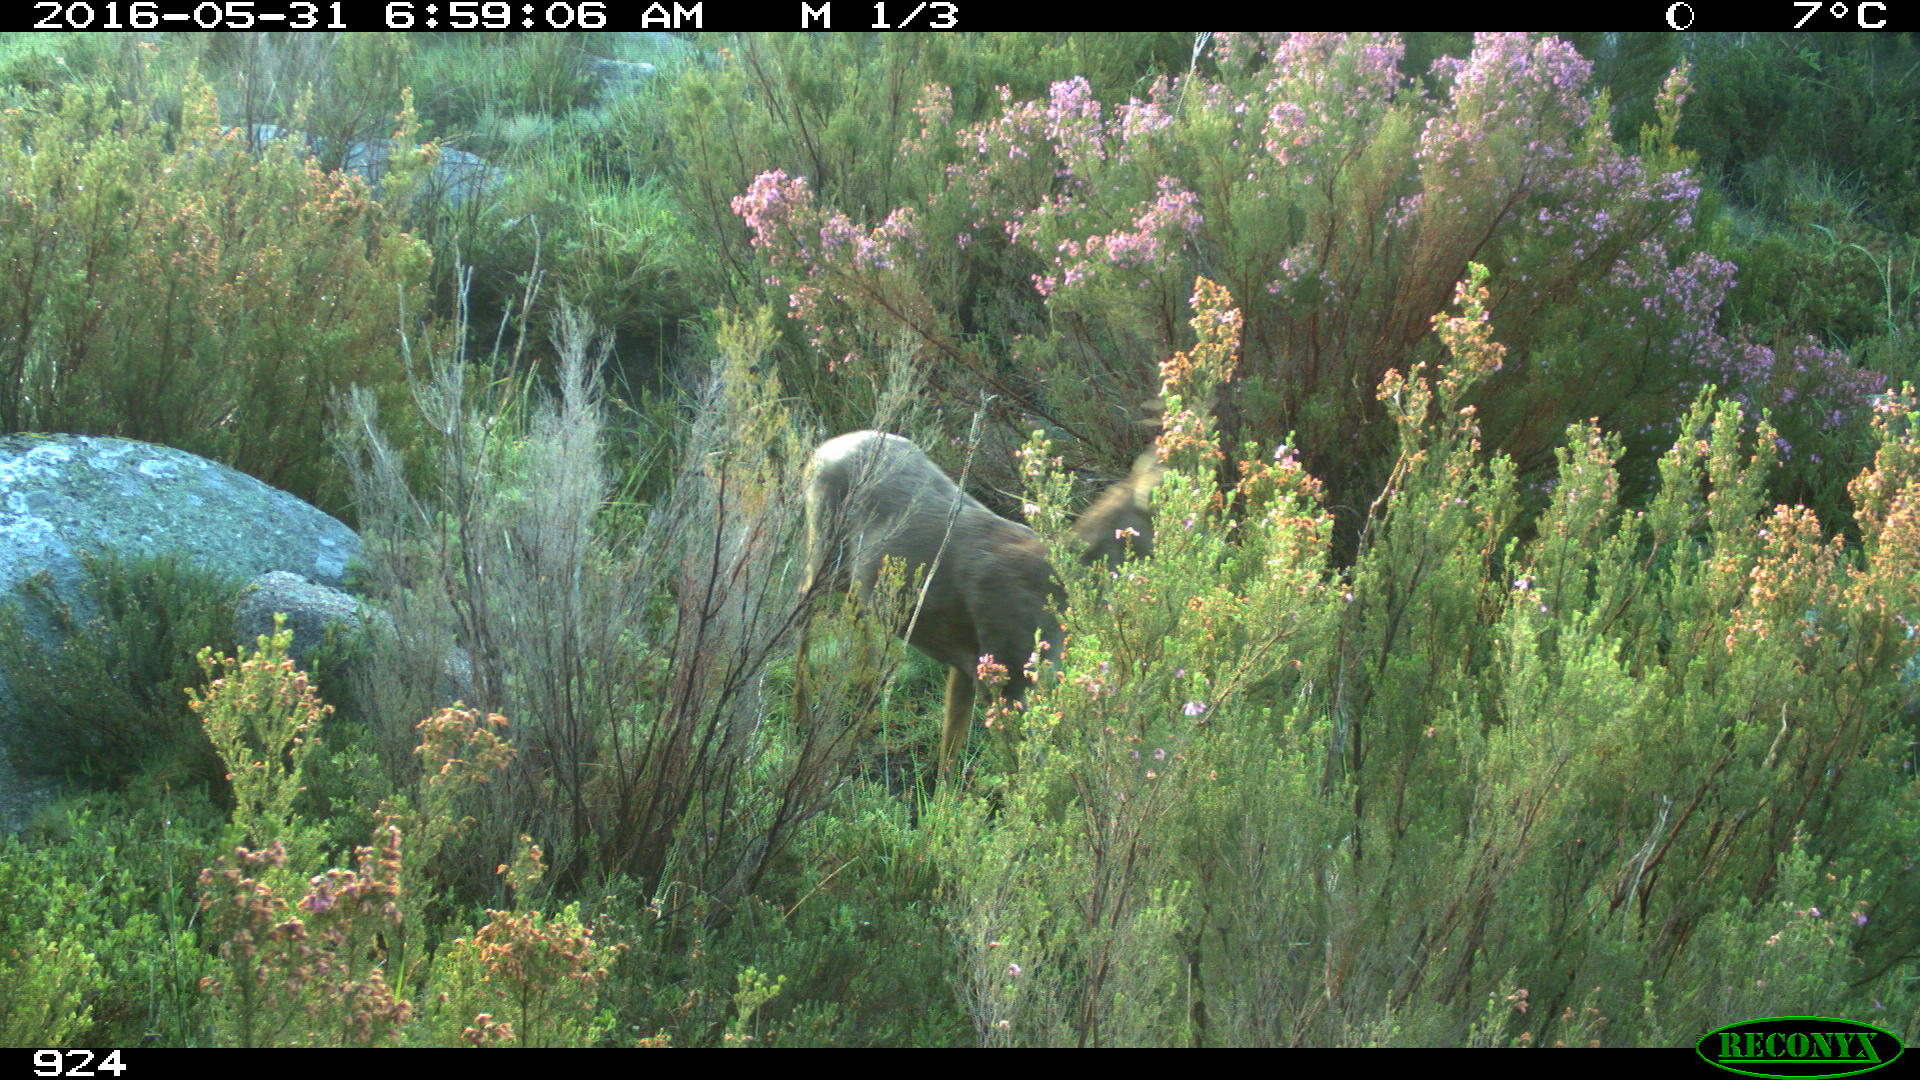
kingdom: Animalia
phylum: Chordata
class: Mammalia
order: Artiodactyla
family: Cervidae
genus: Capreolus
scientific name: Capreolus capreolus
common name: Western roe deer
